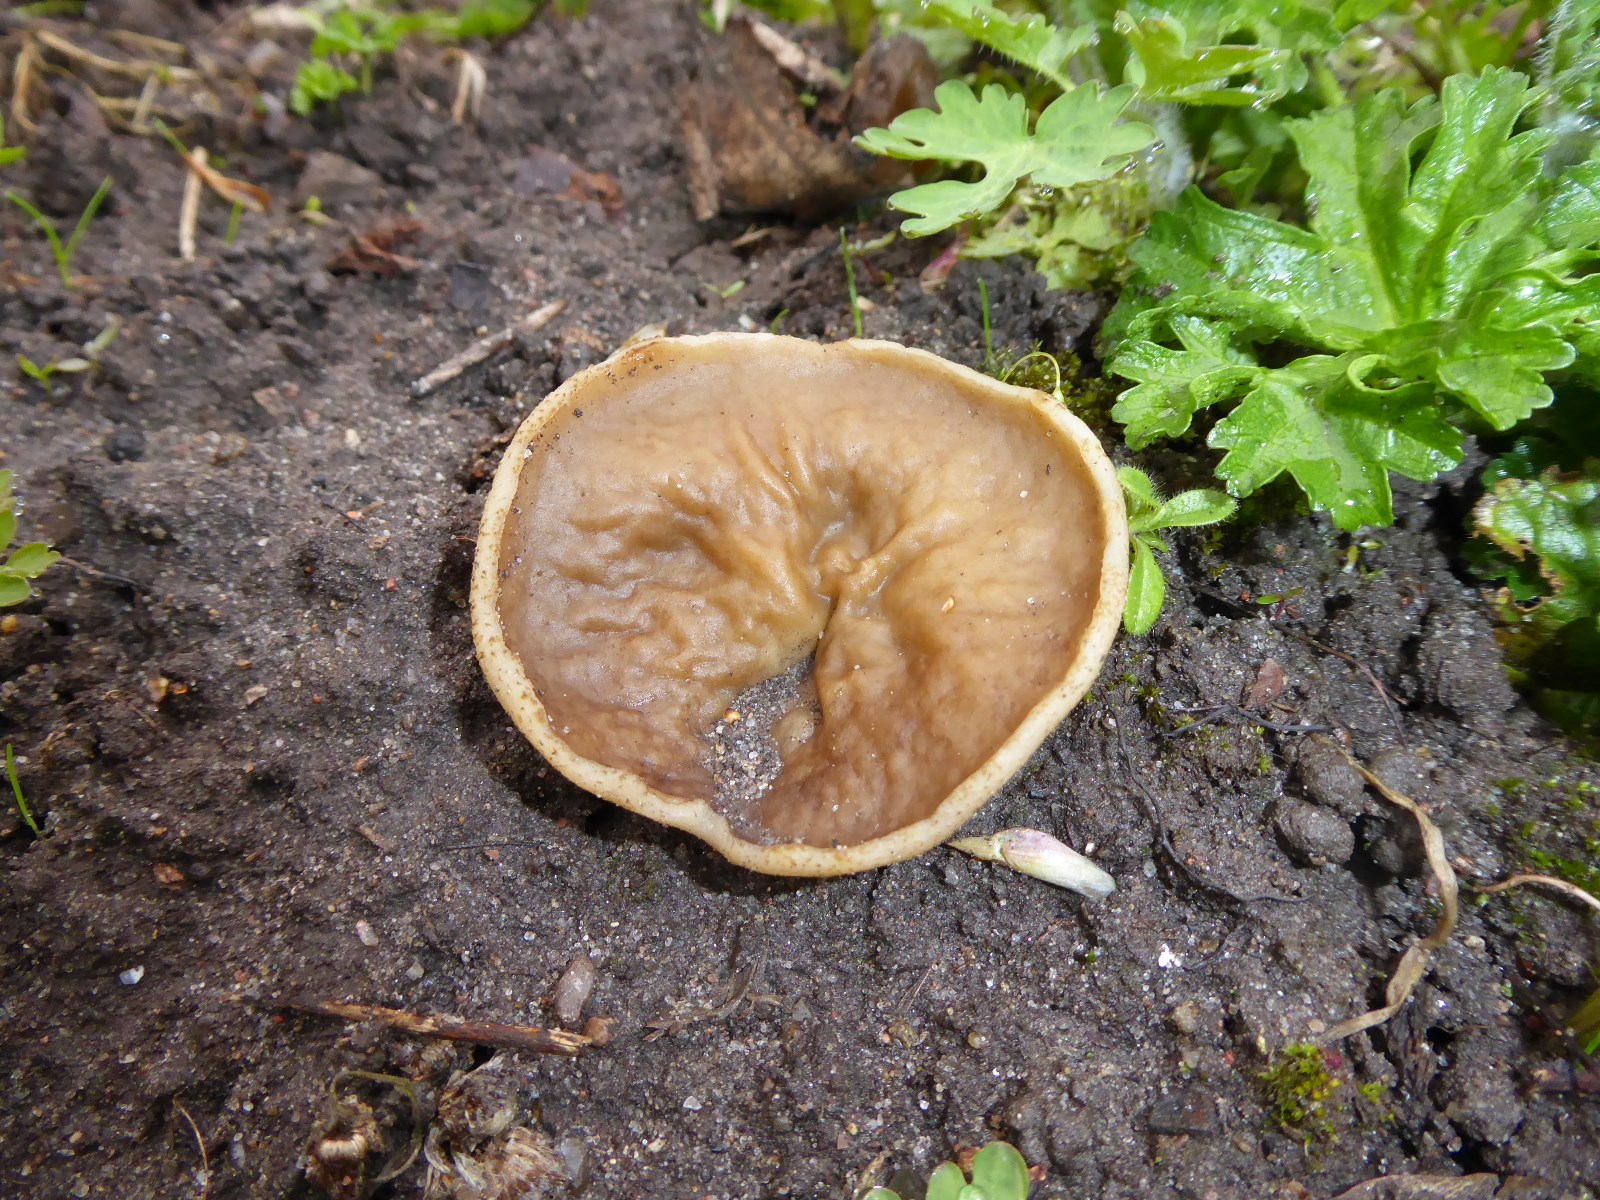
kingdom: Fungi
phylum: Ascomycota
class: Pezizomycetes
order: Pezizales
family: Morchellaceae
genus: Disciotis
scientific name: Disciotis venosa
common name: klor-bægermorkel
